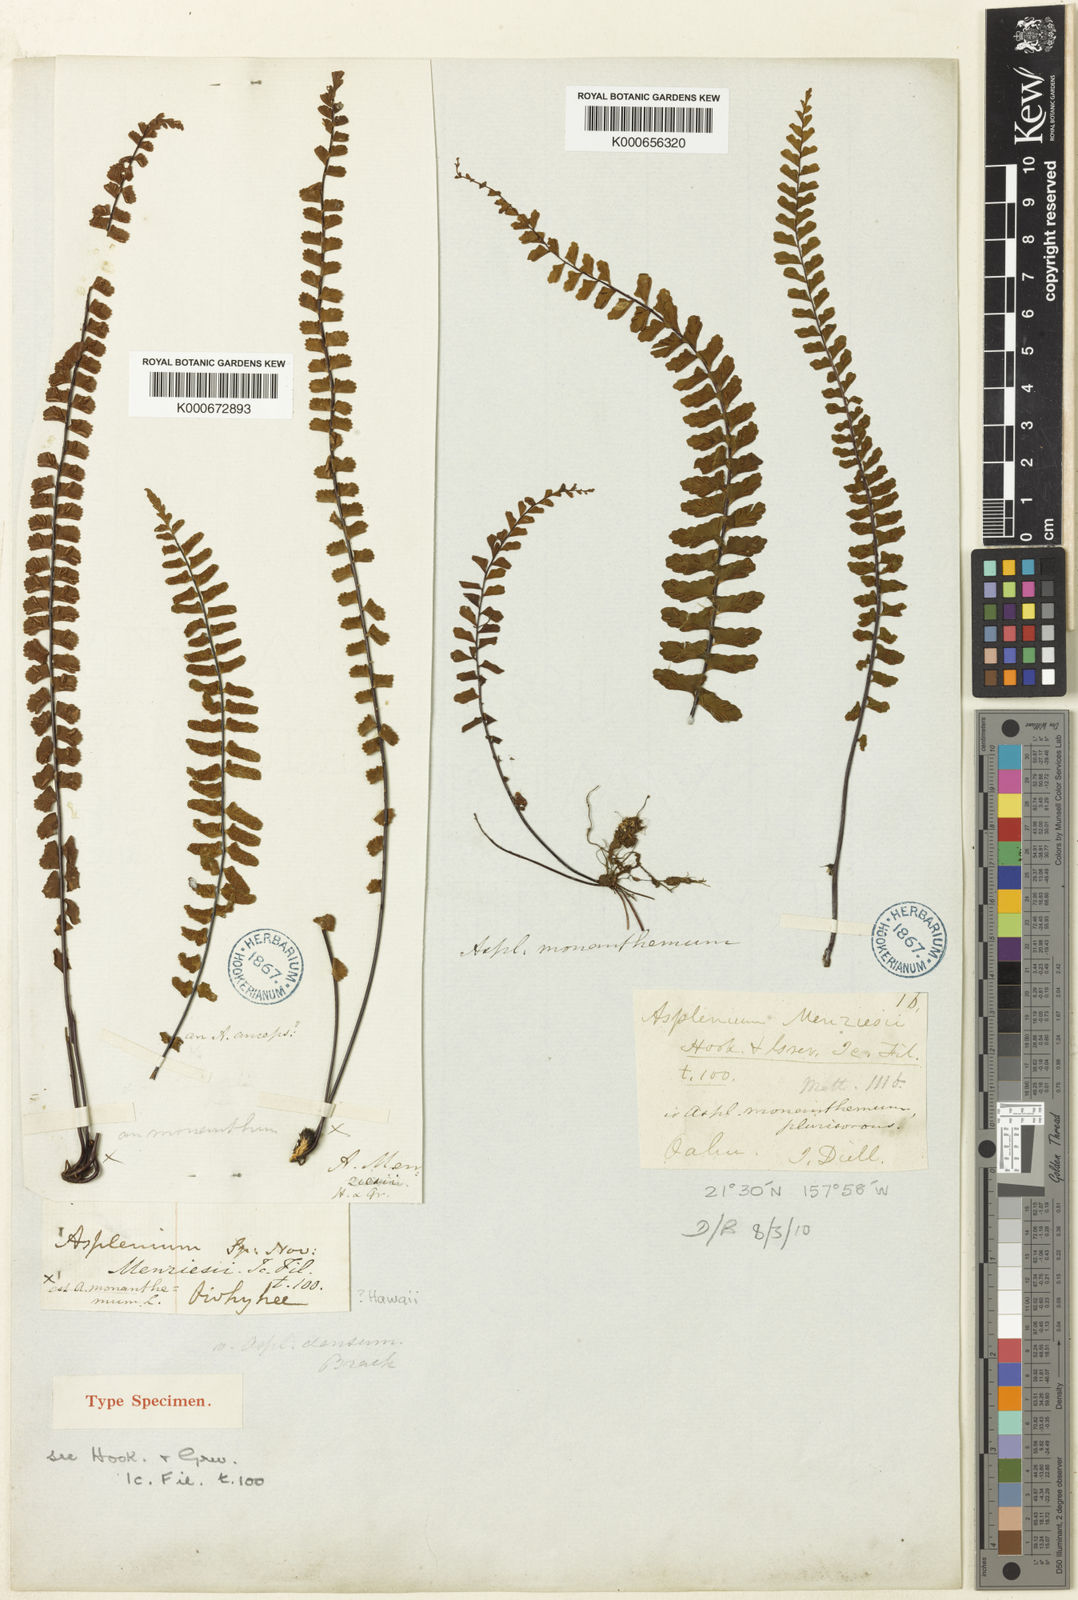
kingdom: Plantae
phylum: Tracheophyta
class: Polypodiopsida
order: Polypodiales
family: Aspleniaceae
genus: Asplenium
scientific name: Asplenium monanthes
